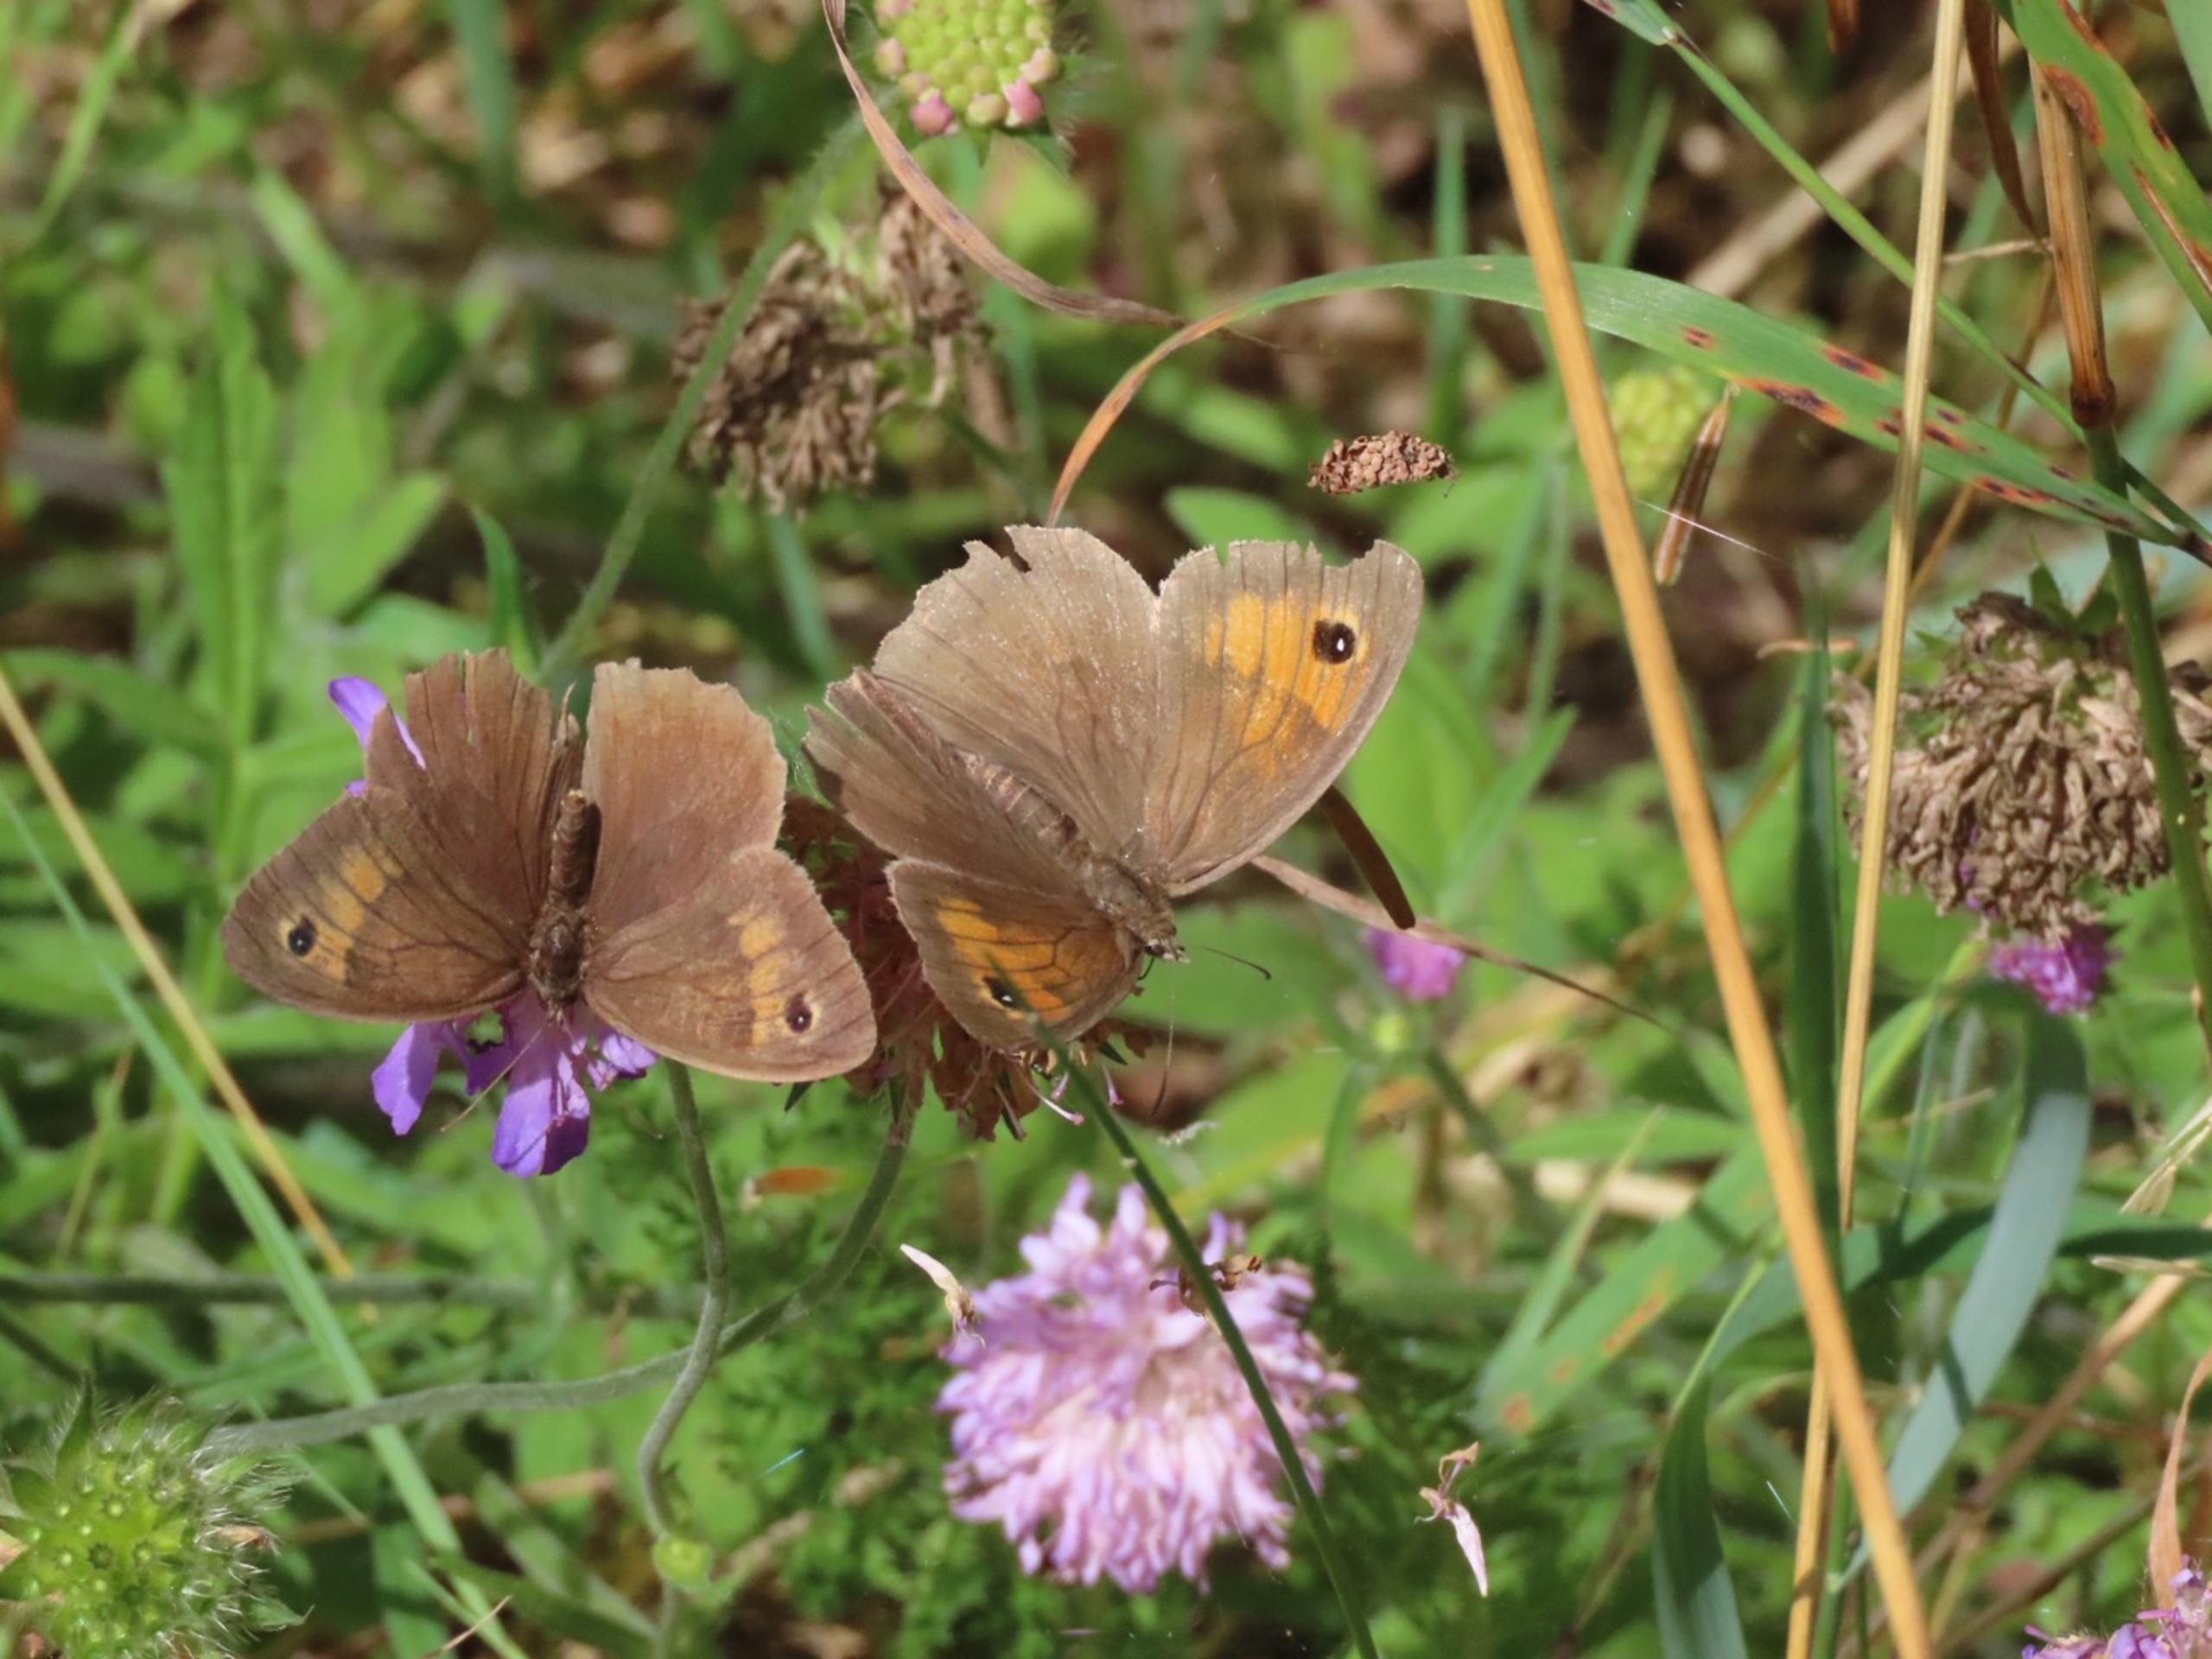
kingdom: Animalia
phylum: Arthropoda
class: Insecta
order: Lepidoptera
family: Nymphalidae
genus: Maniola
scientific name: Maniola jurtina
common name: Græsrandøje
